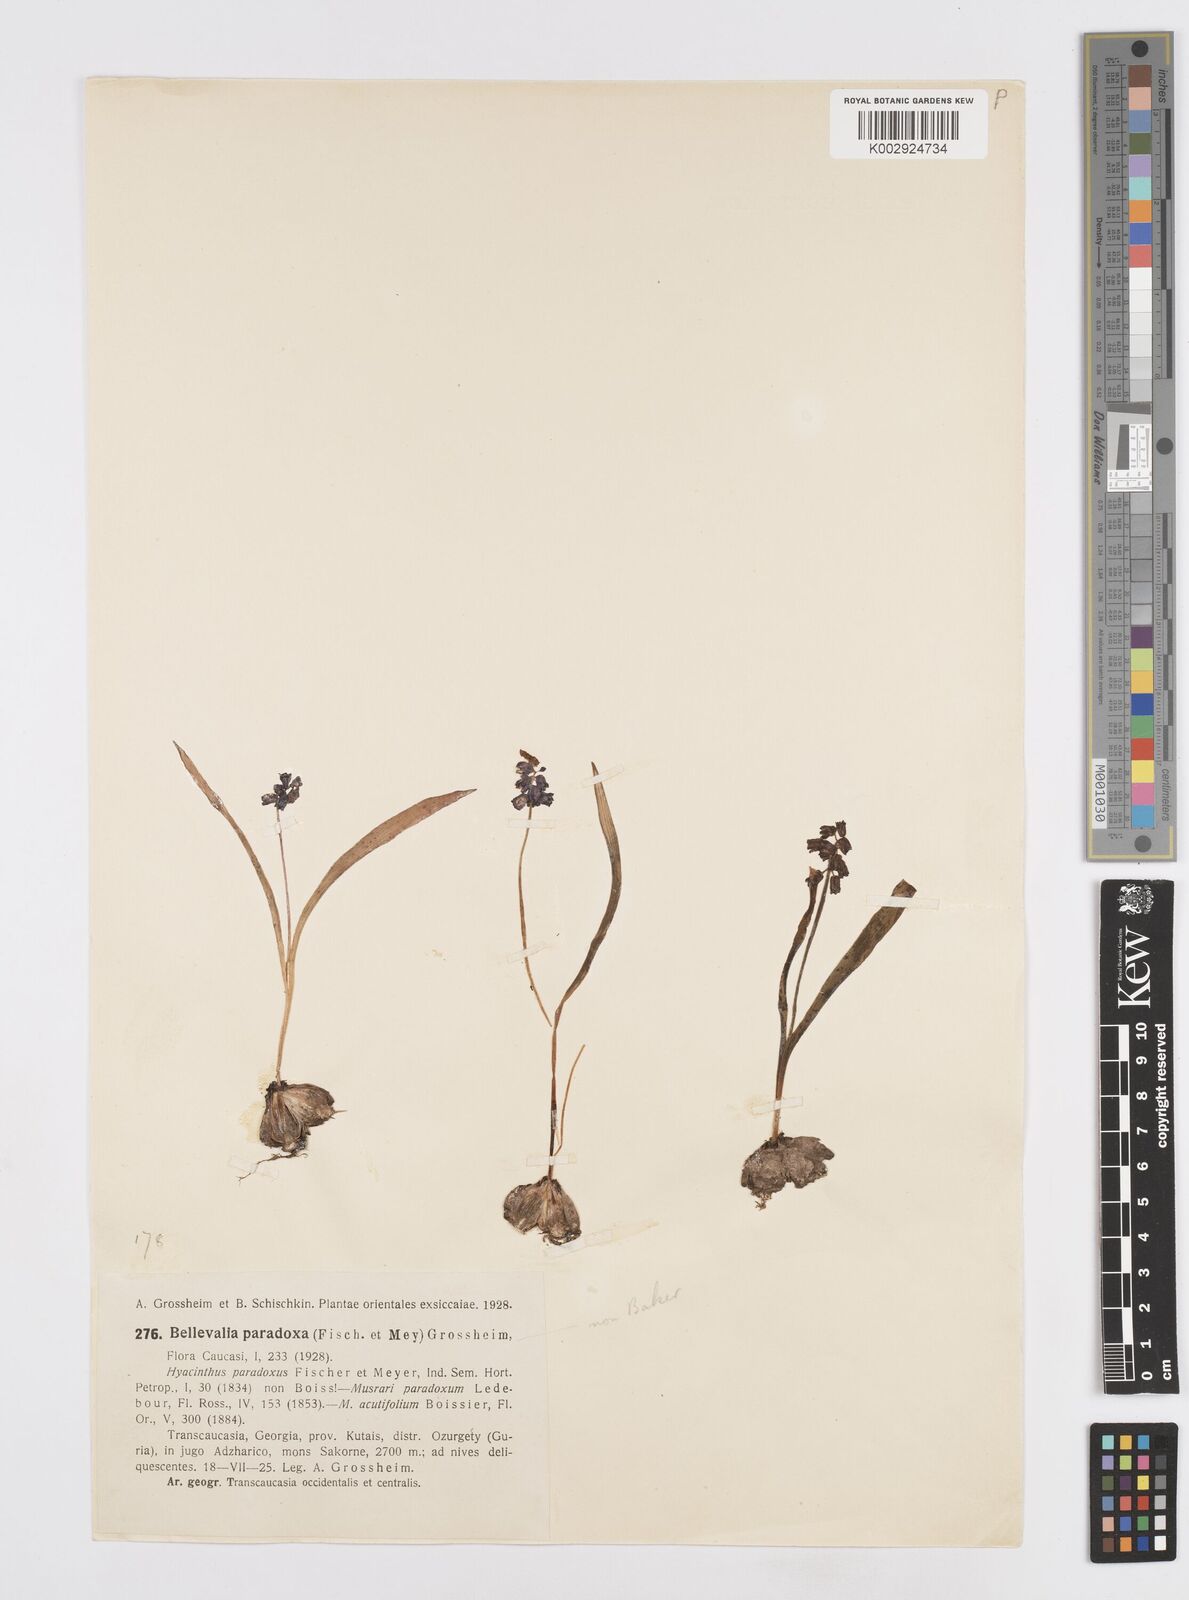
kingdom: Plantae
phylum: Tracheophyta
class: Liliopsida
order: Asparagales
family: Asparagaceae
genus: Bellevalia
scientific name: Bellevalia paradoxa
